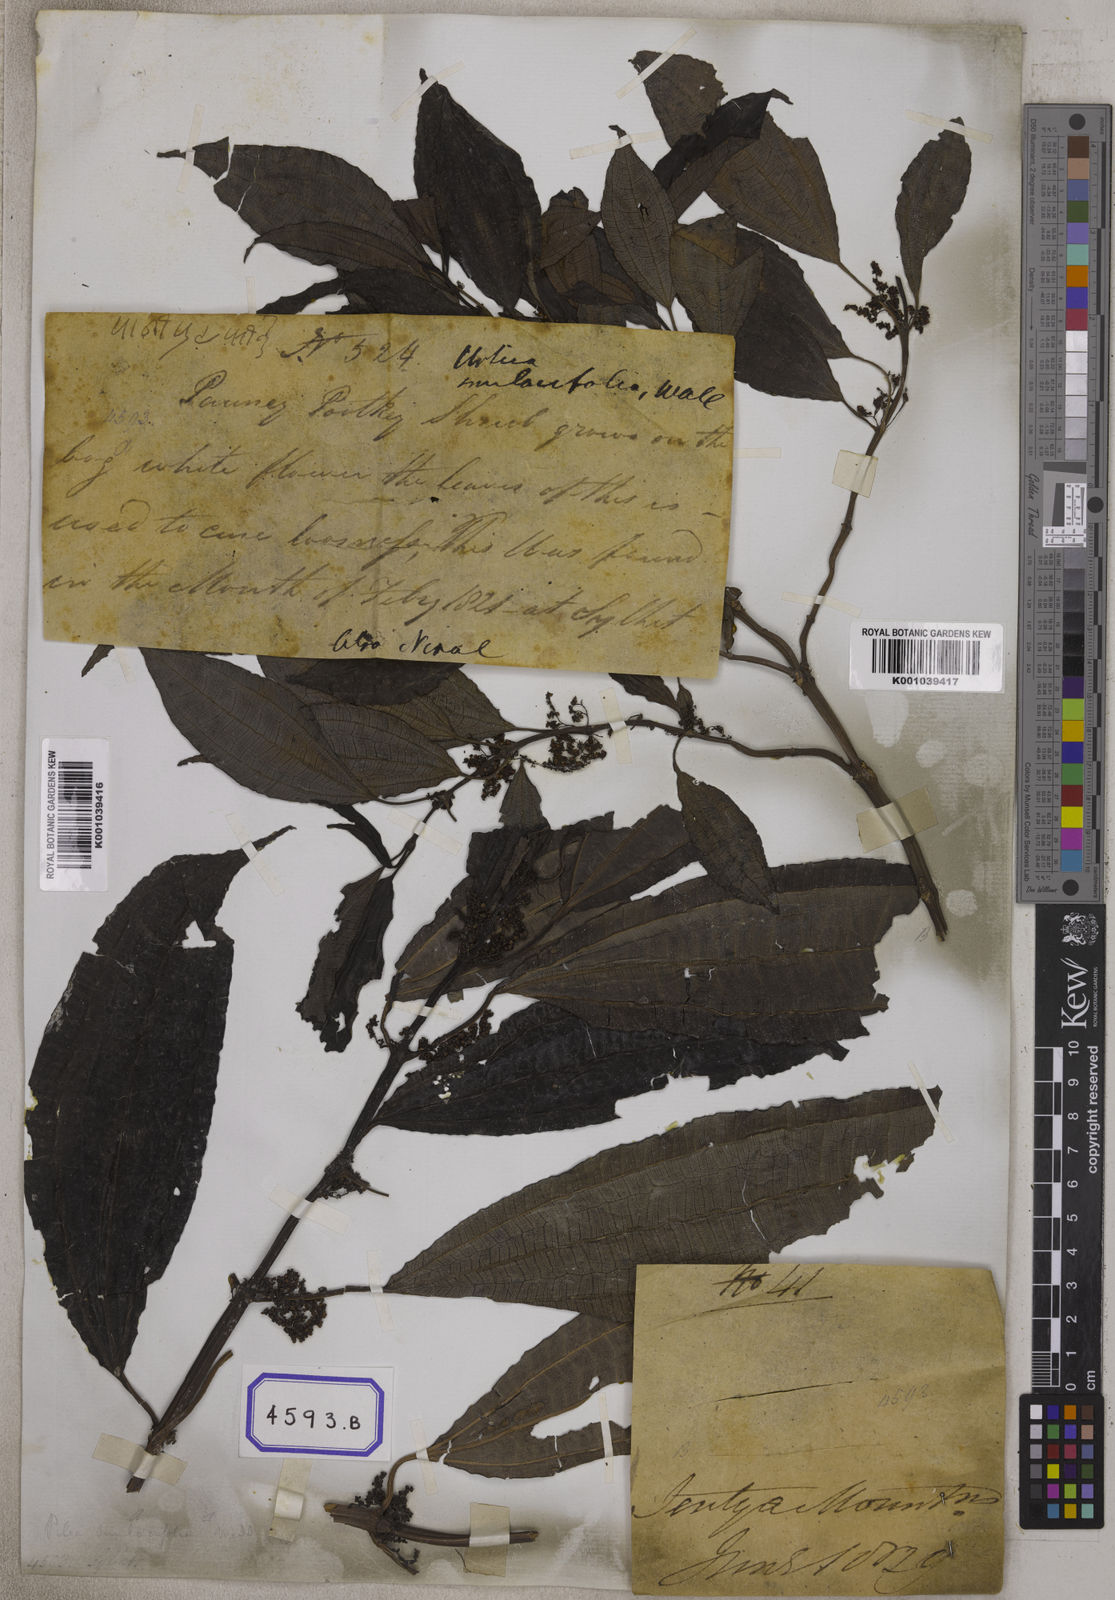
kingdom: Plantae
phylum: Tracheophyta
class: Magnoliopsida
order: Rosales
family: Urticaceae
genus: Urtica
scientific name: Urtica
